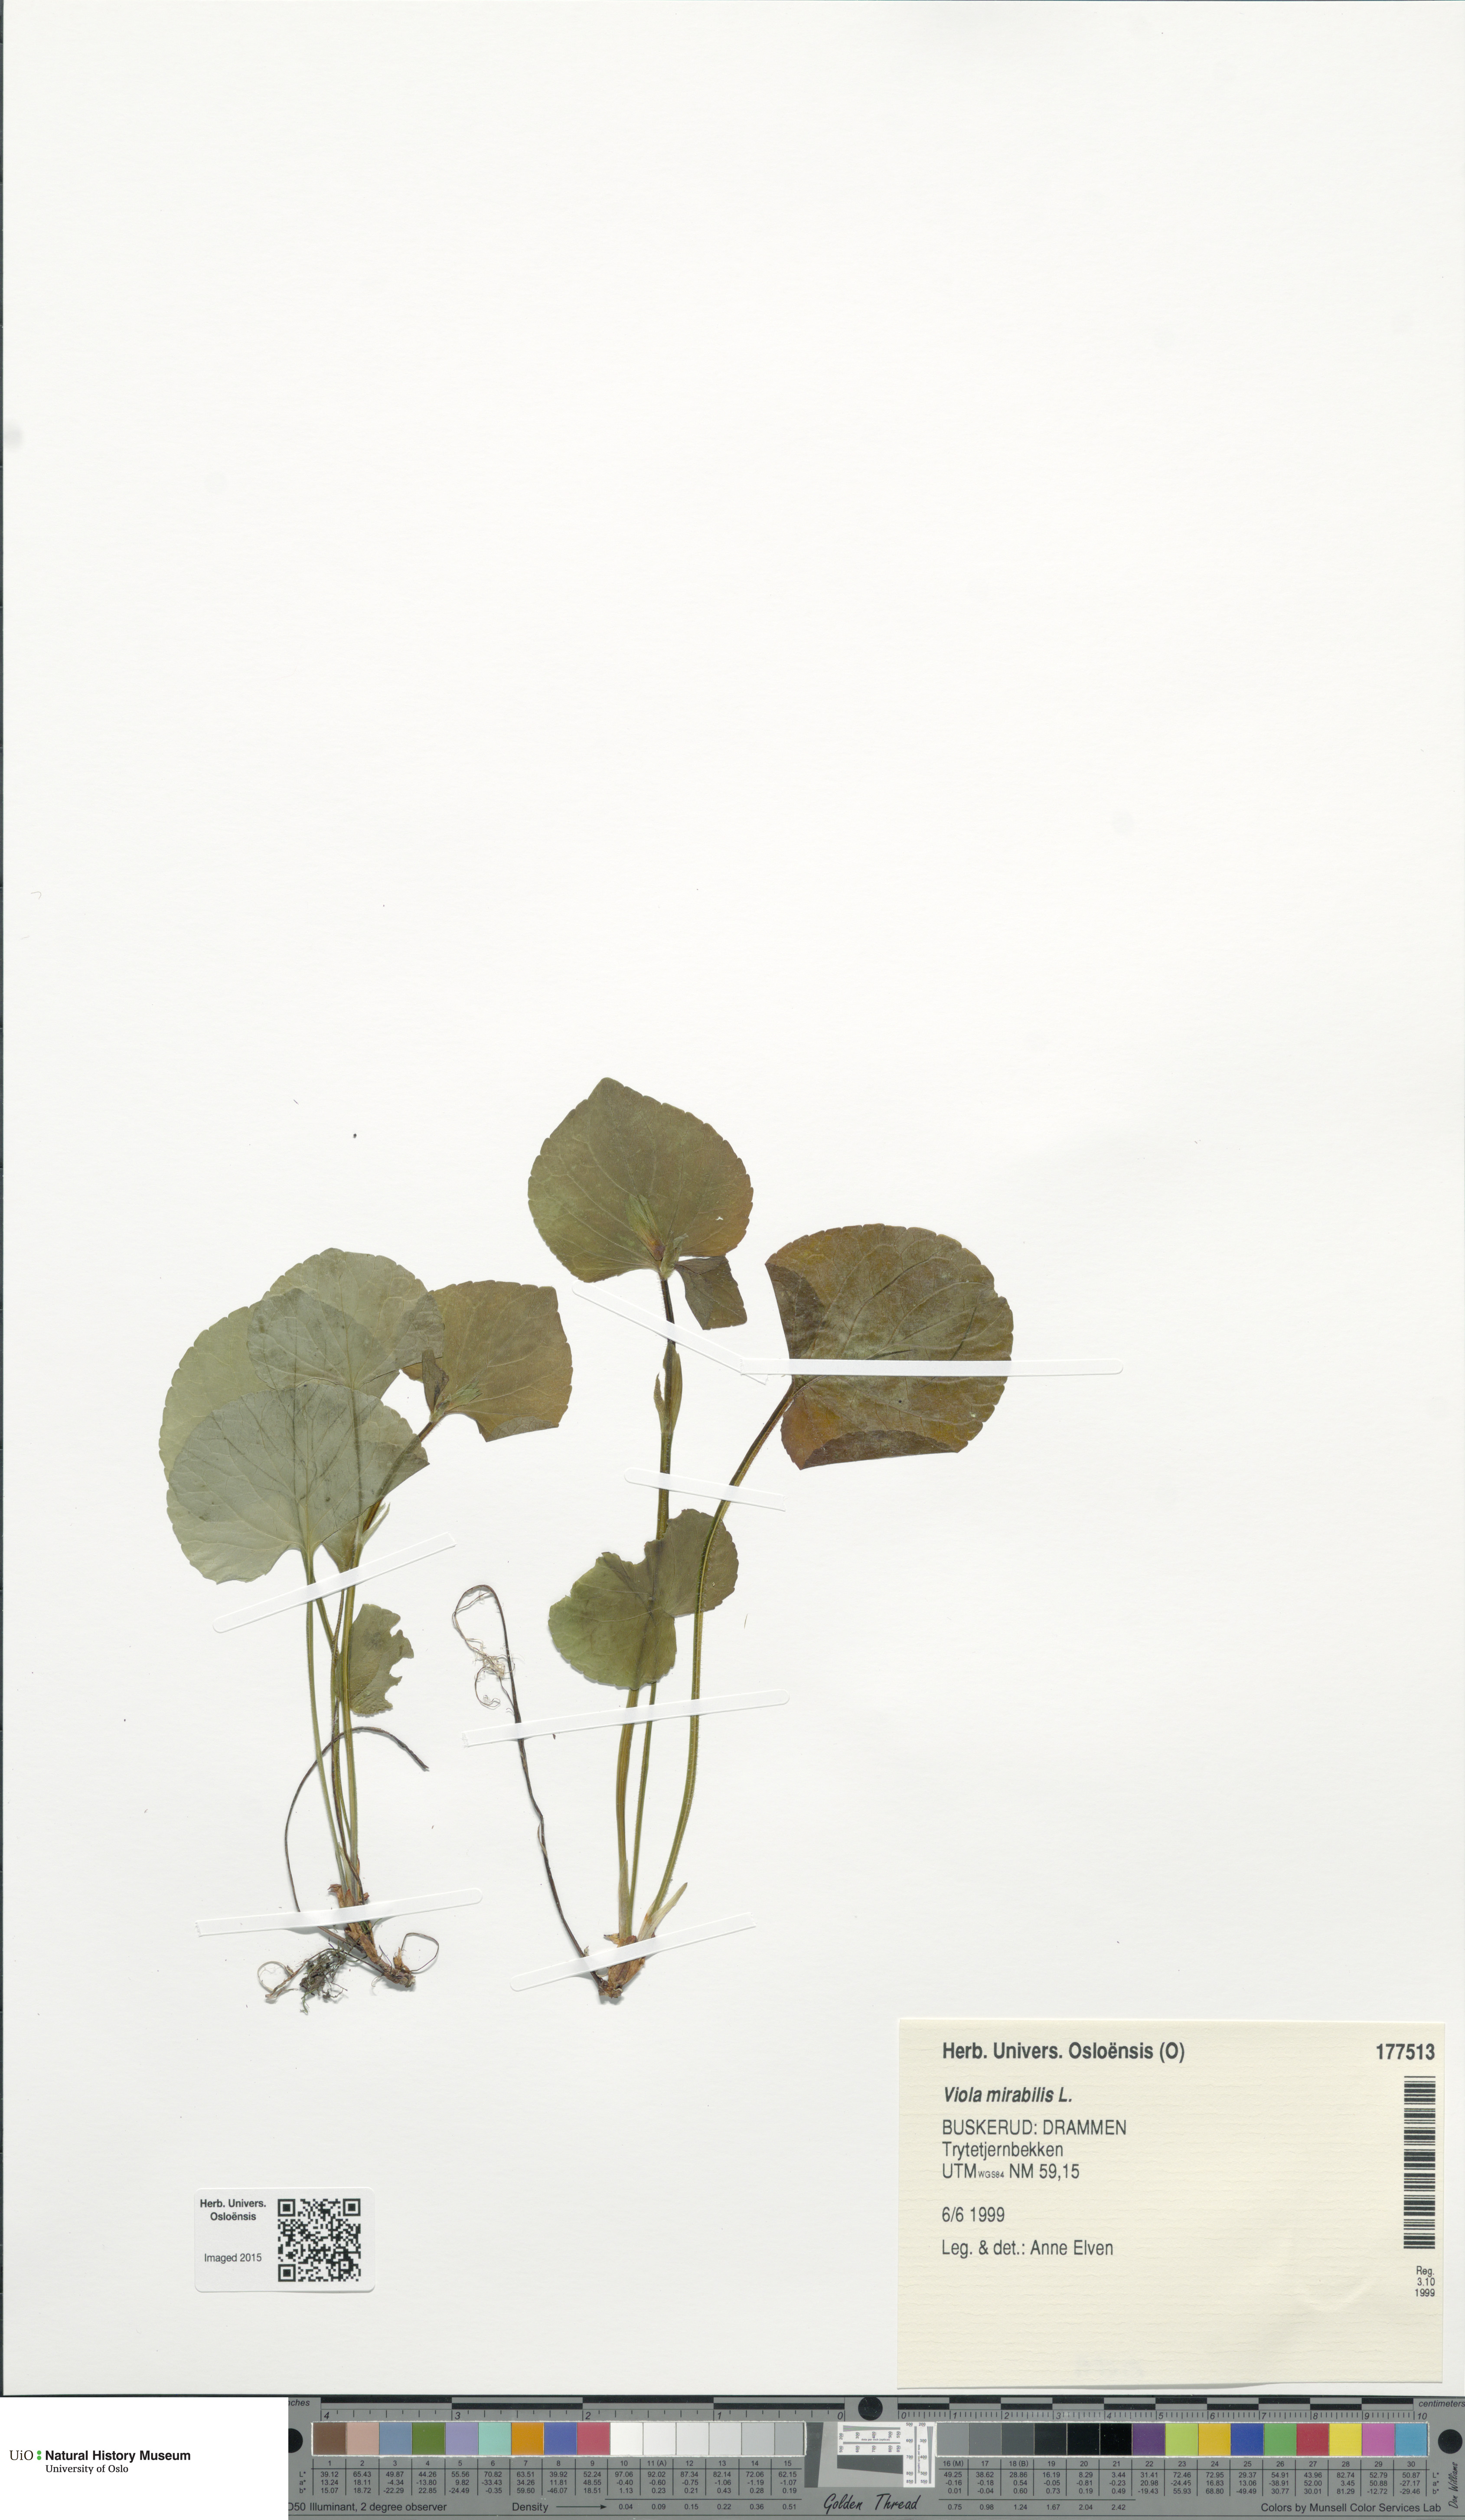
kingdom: Plantae
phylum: Tracheophyta
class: Magnoliopsida
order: Malpighiales
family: Violaceae
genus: Viola
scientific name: Viola mirabilis
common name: Wonder violet
